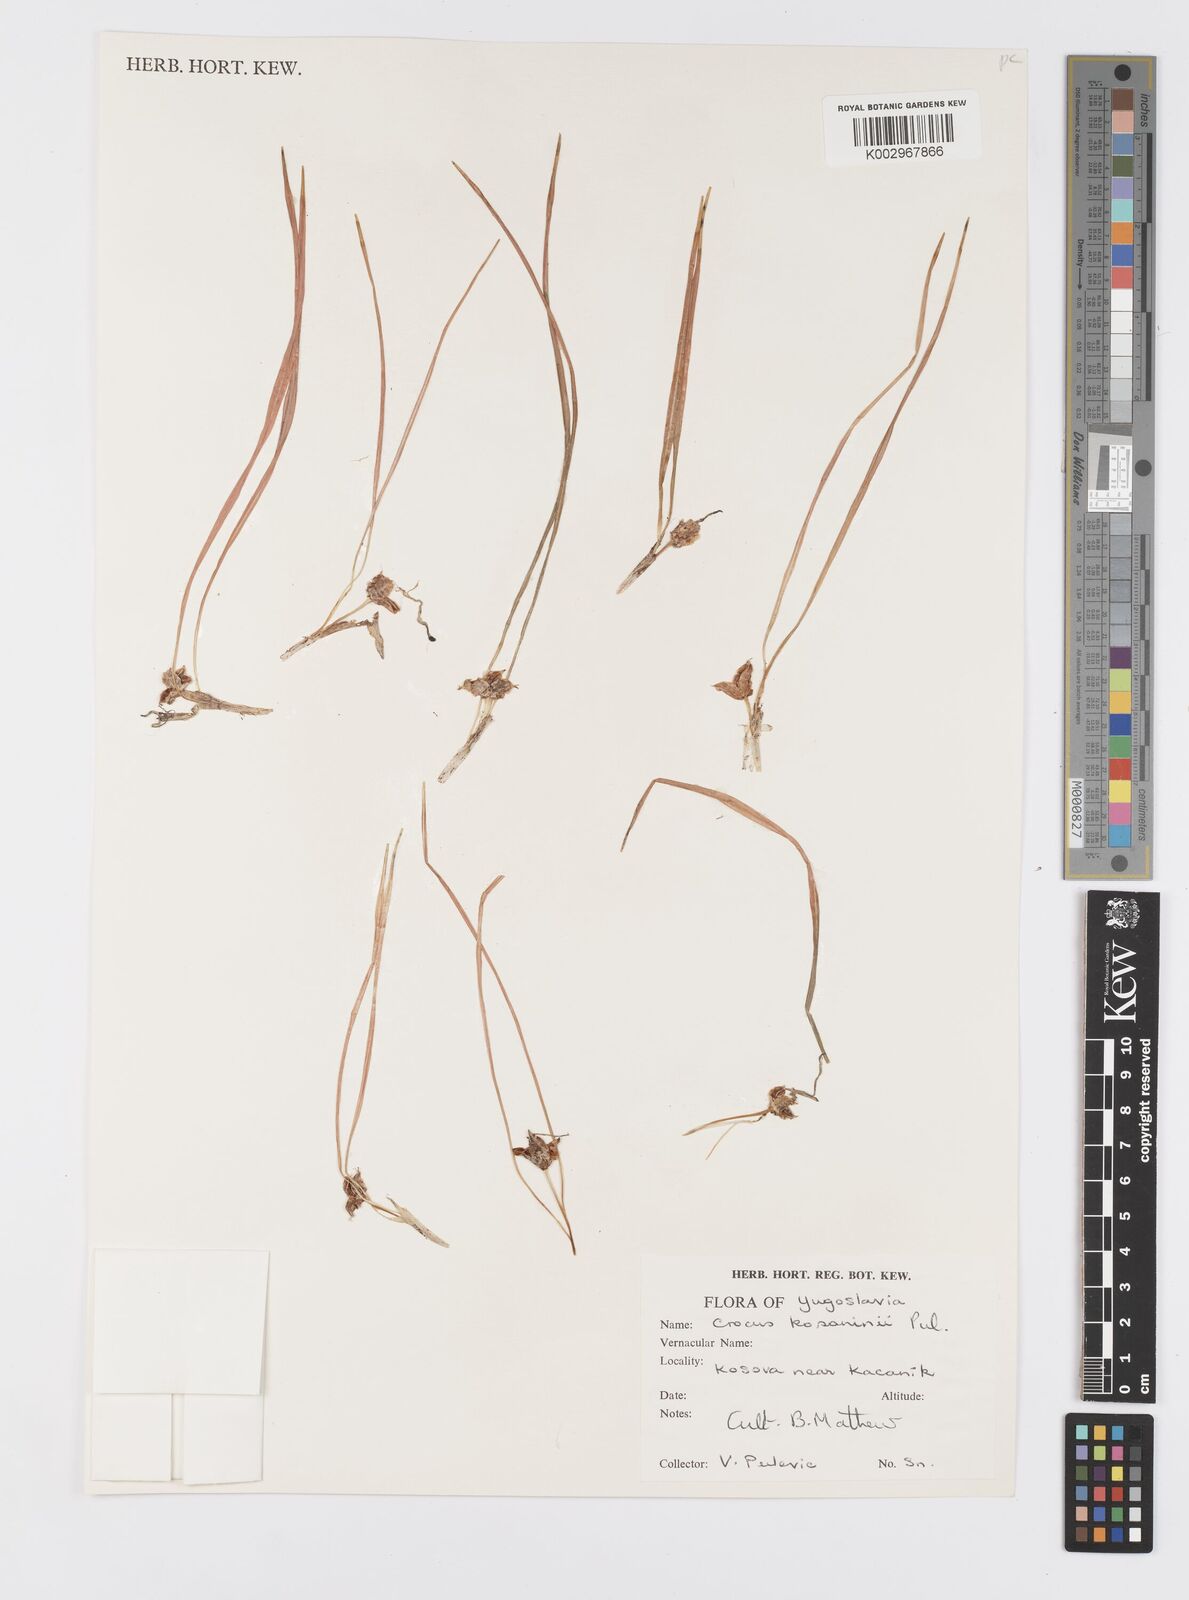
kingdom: Plantae
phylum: Tracheophyta
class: Liliopsida
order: Asparagales
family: Iridaceae
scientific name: Iridaceae
